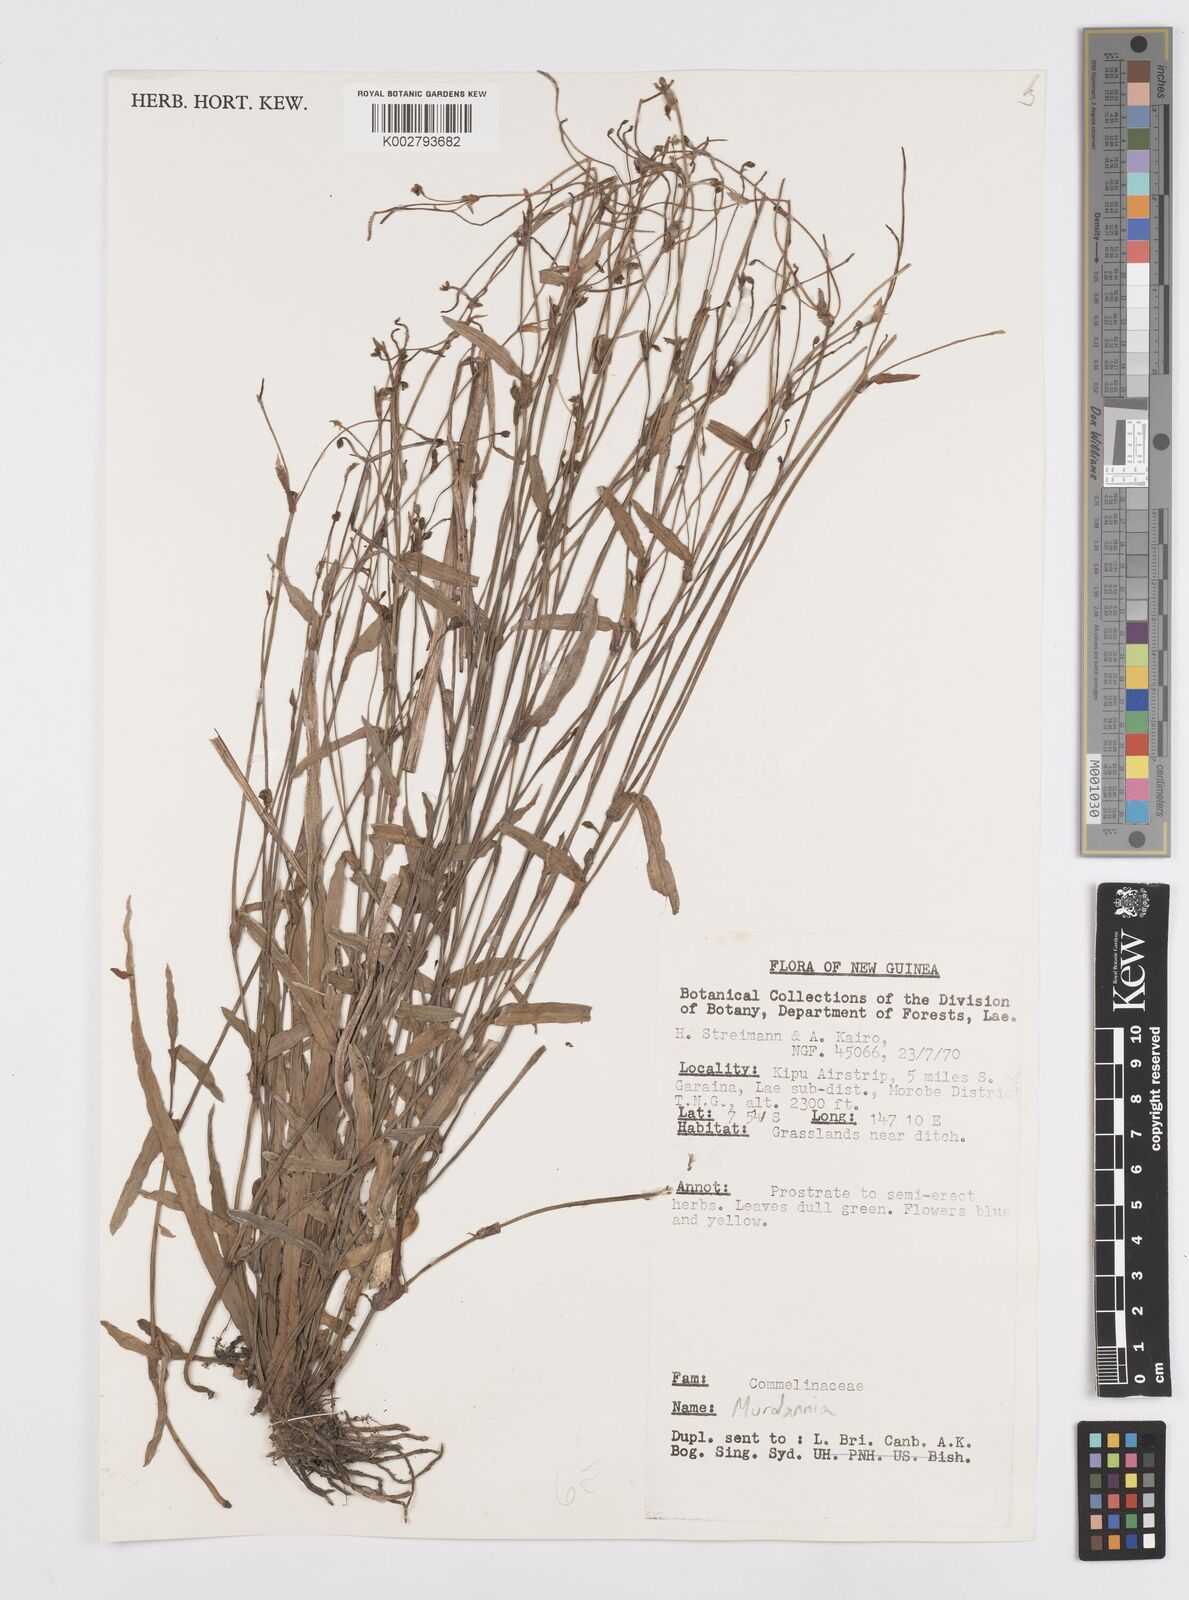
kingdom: Plantae
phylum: Tracheophyta
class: Liliopsida
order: Commelinales
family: Commelinaceae
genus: Murdannia
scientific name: Murdannia
